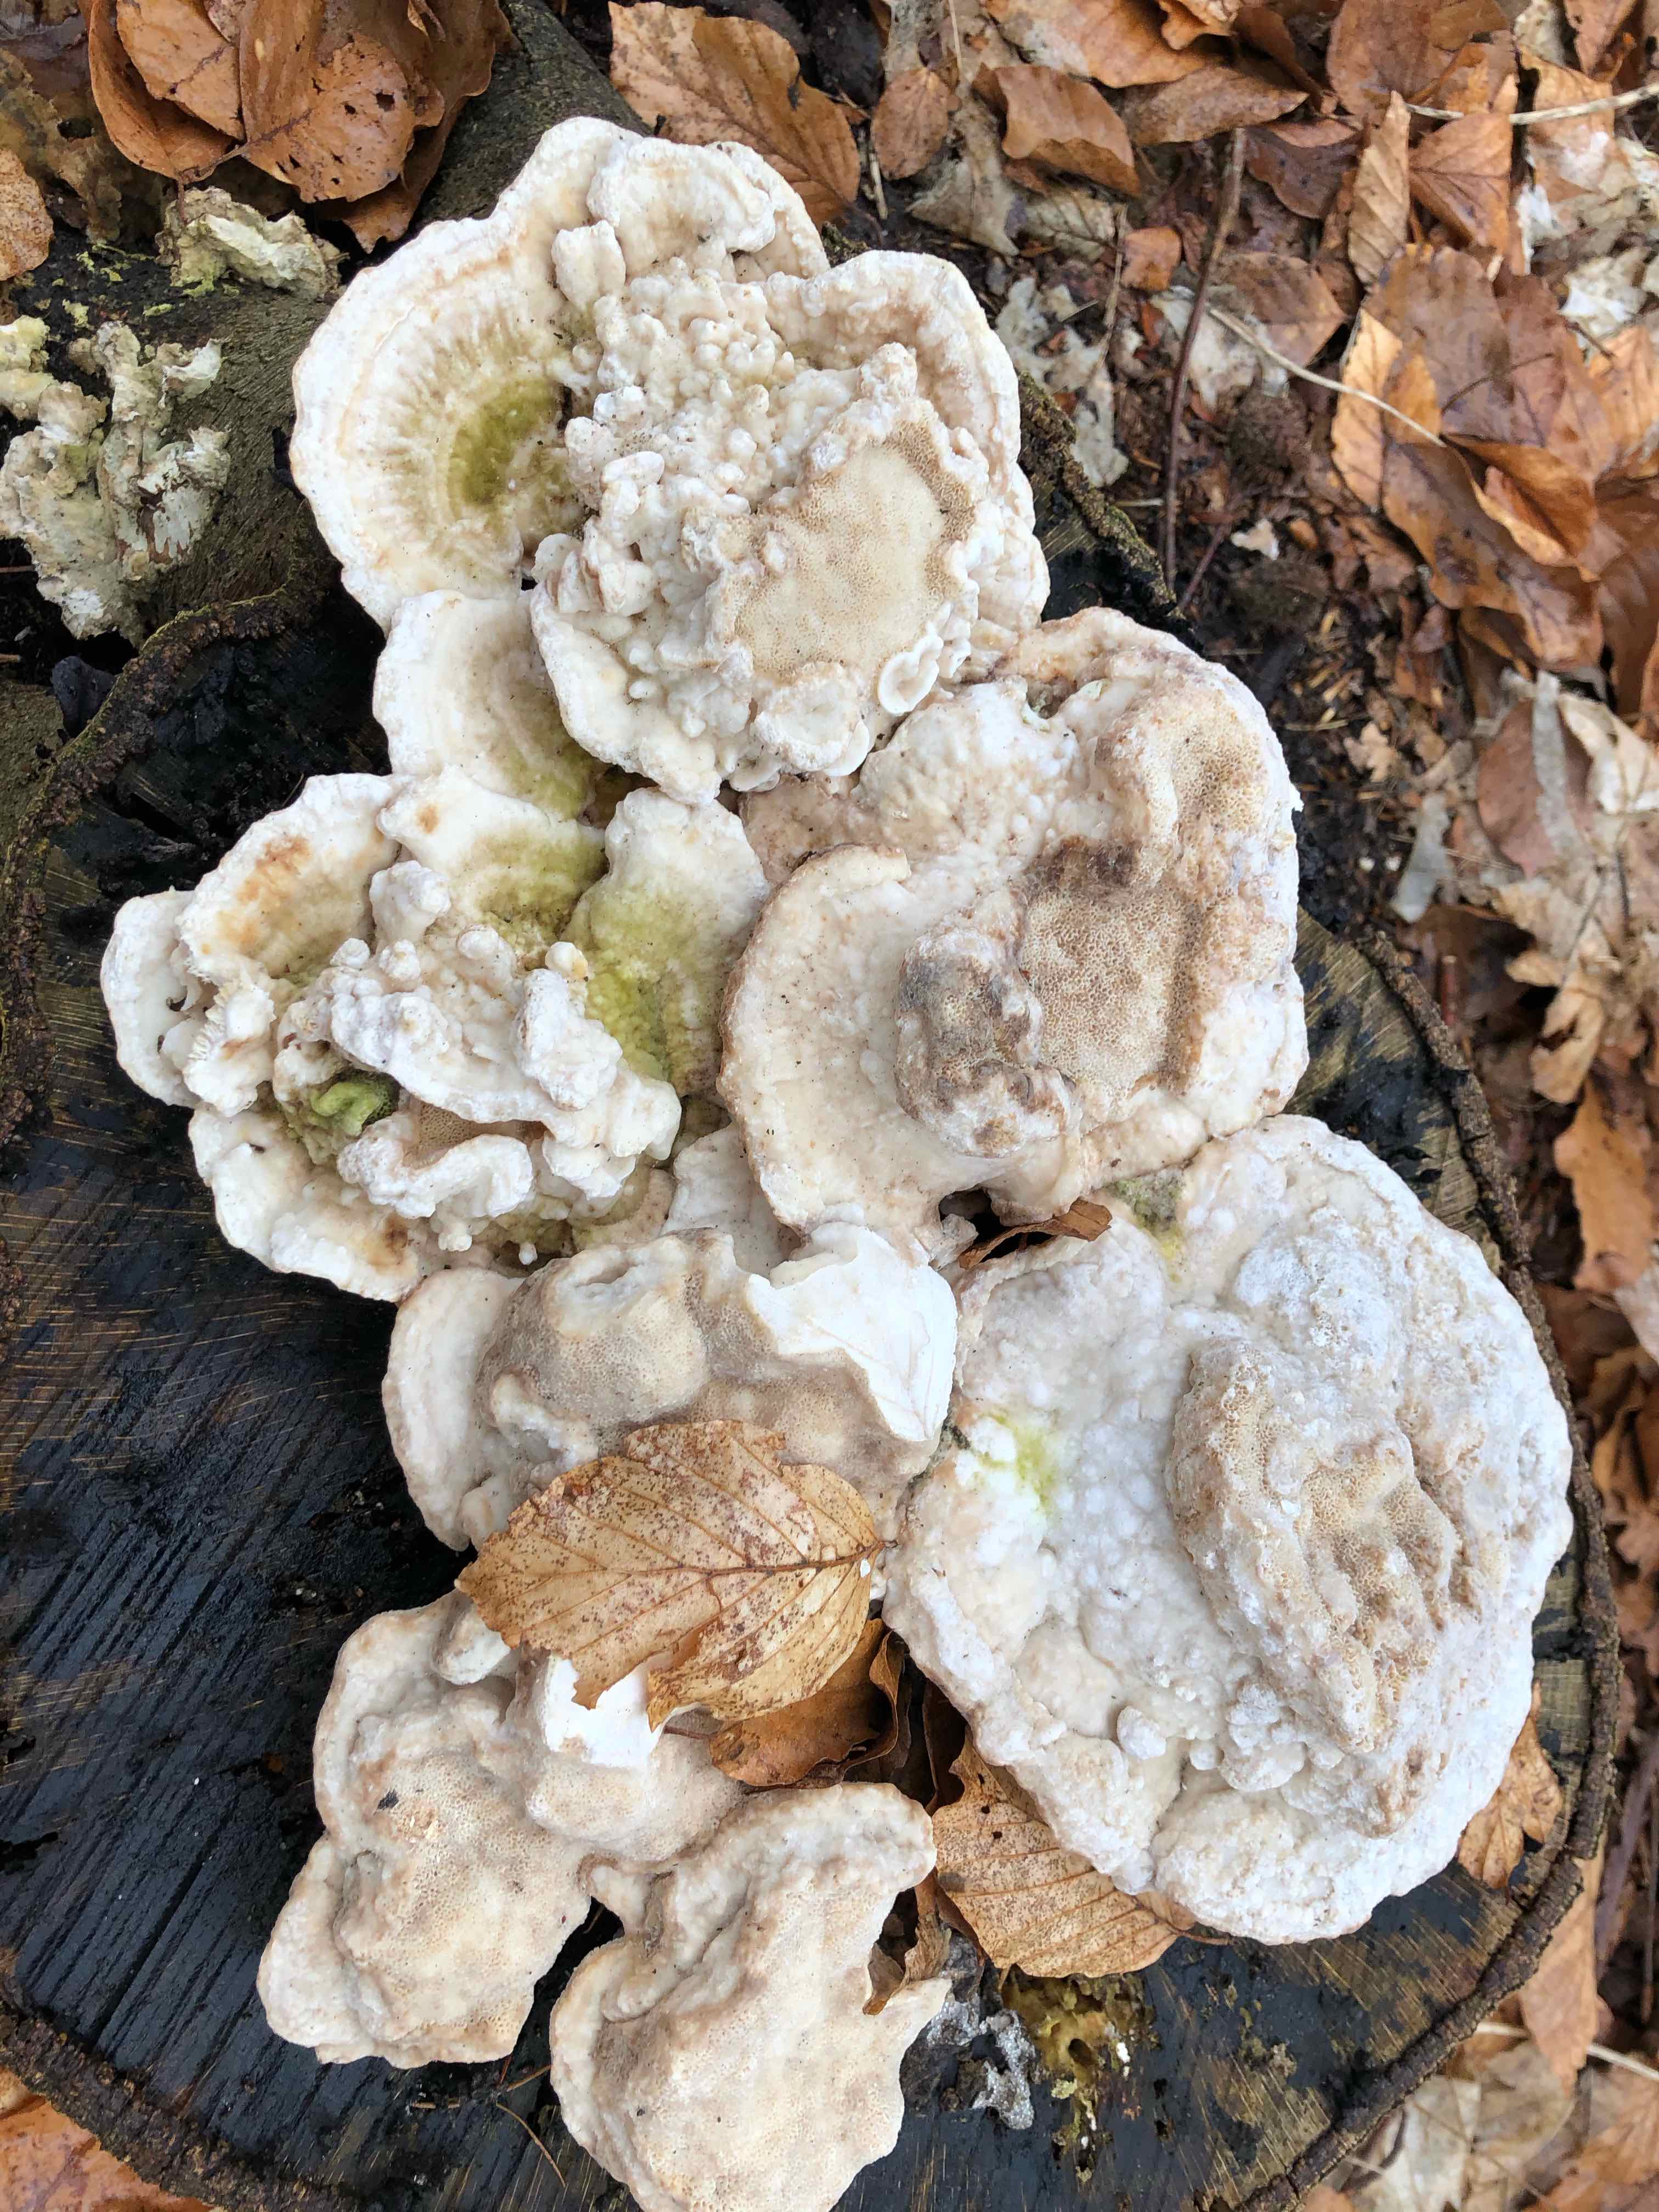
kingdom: Fungi
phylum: Basidiomycota
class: Agaricomycetes
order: Polyporales
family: Polyporaceae
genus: Trametes
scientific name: Trametes gibbosa
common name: puklet læderporesvamp
